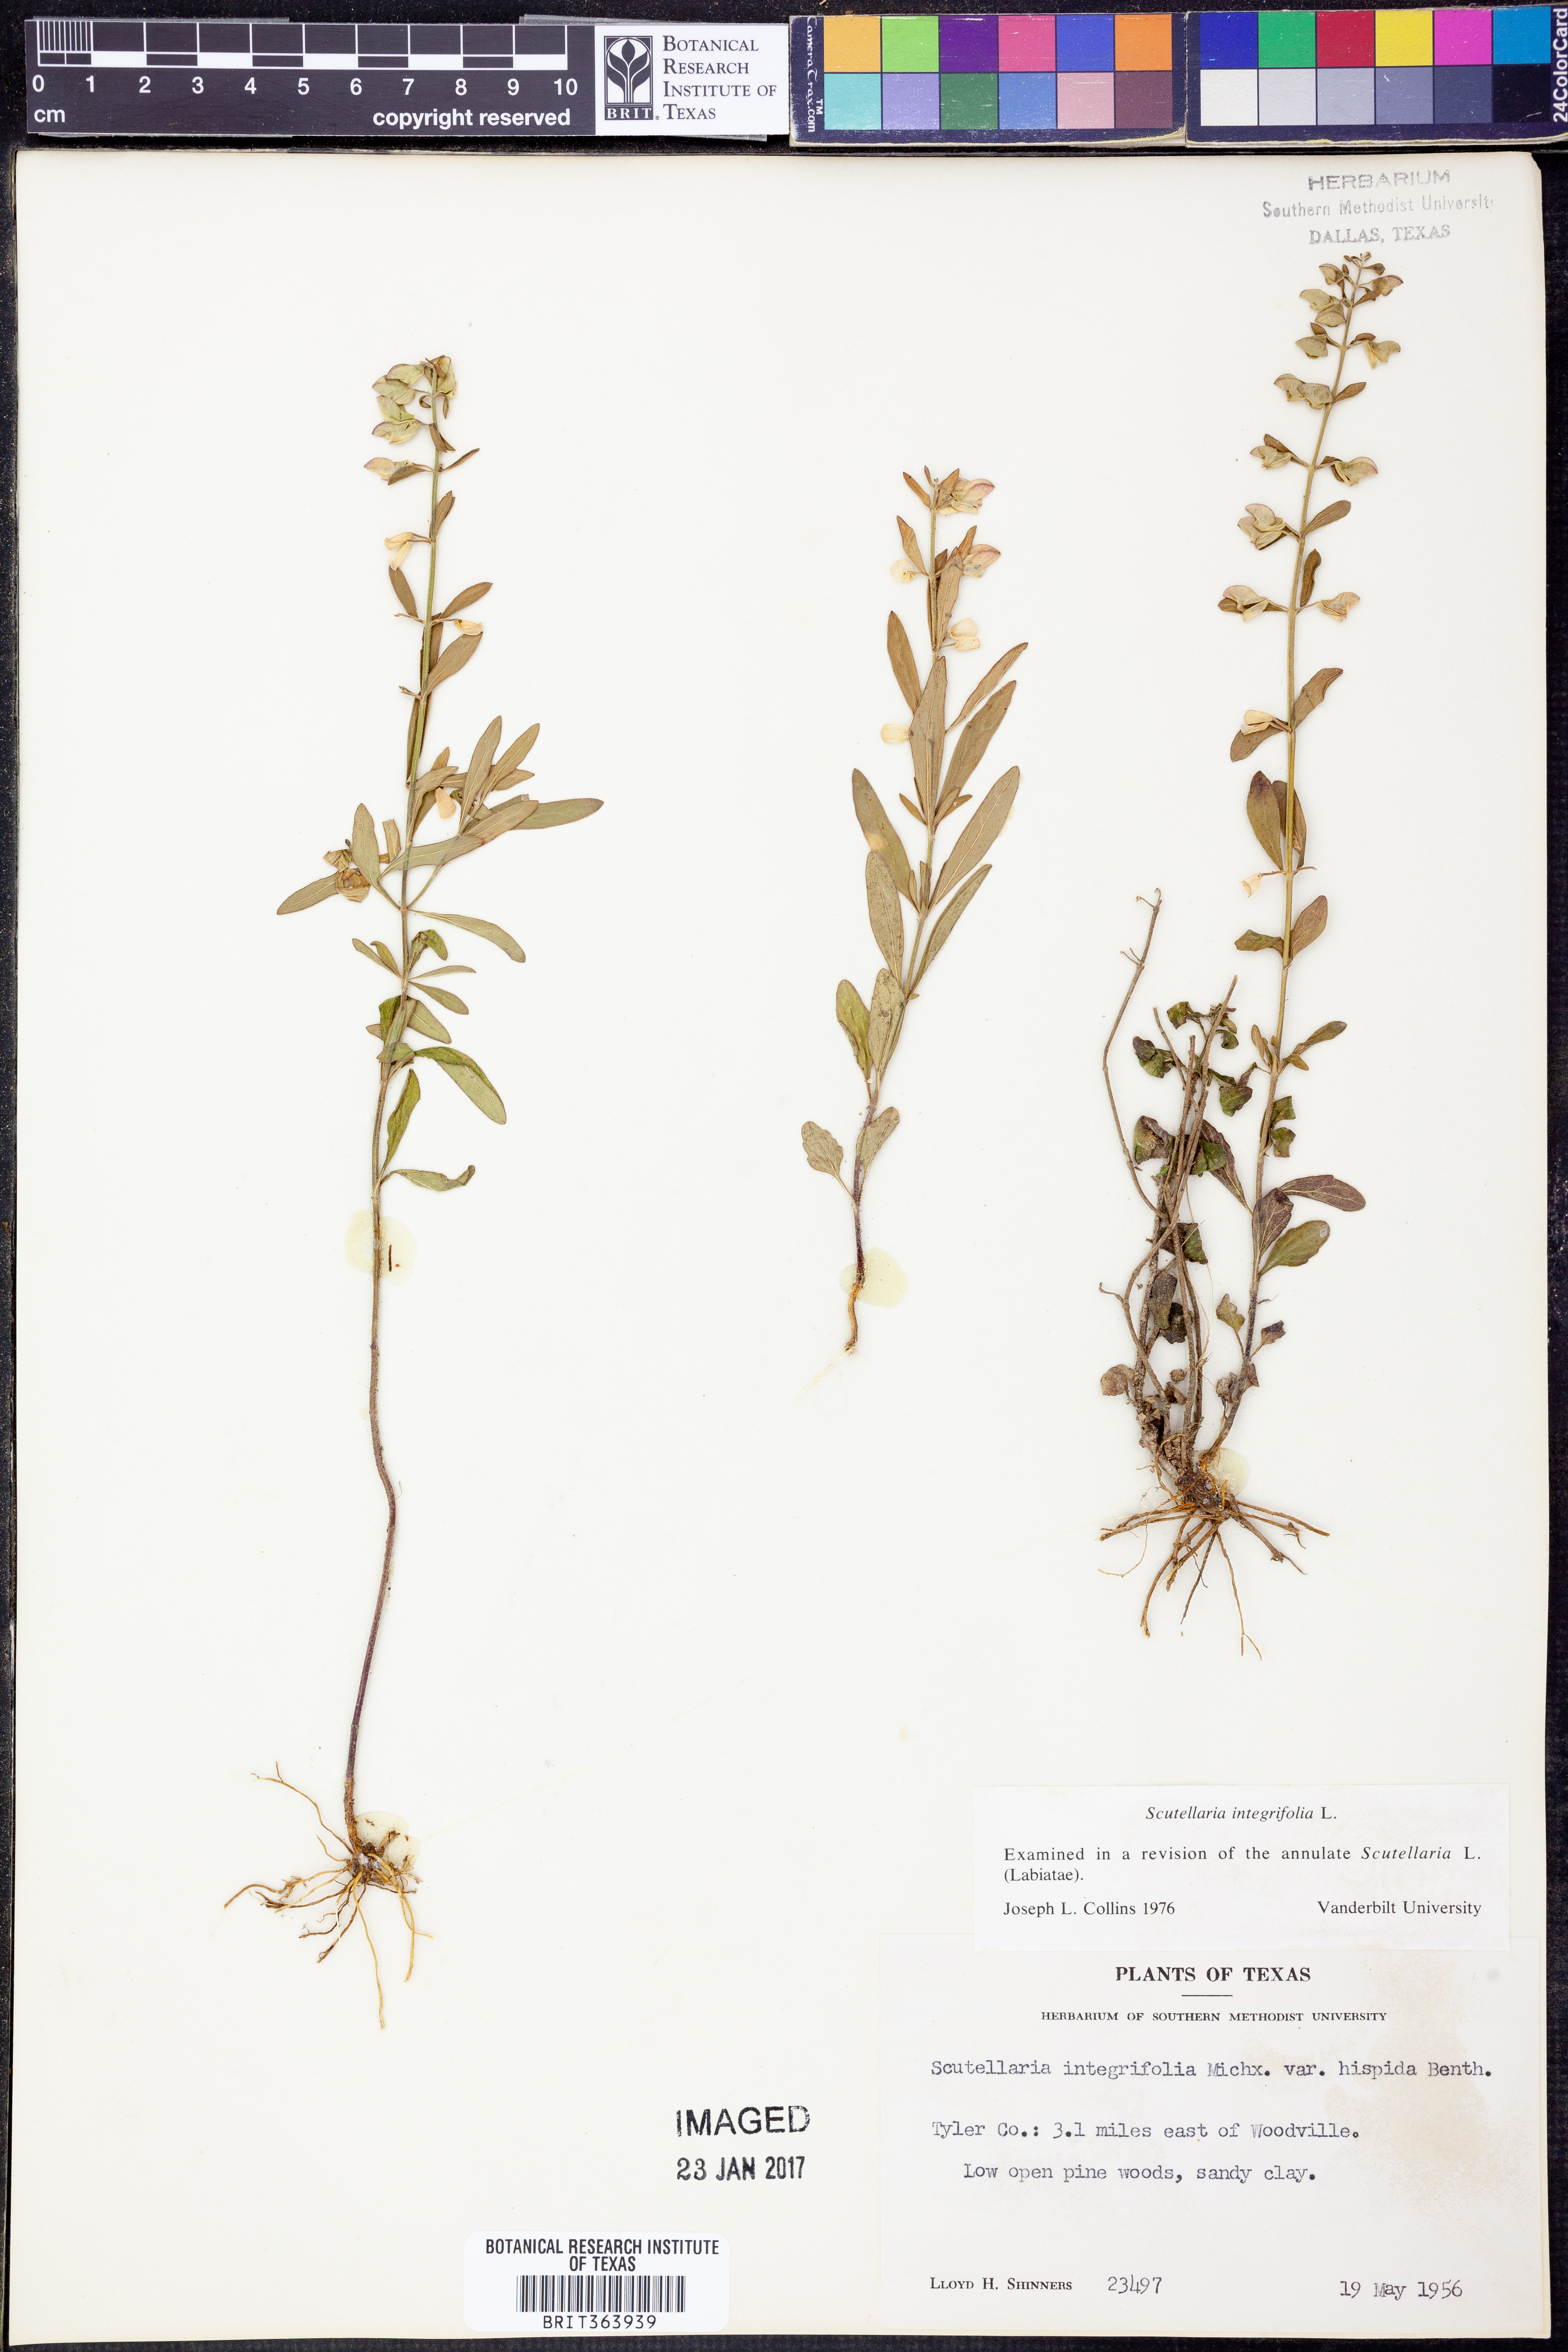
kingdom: Plantae
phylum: Tracheophyta
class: Magnoliopsida
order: Lamiales
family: Lamiaceae
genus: Scutellaria
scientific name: Scutellaria integrifolia
